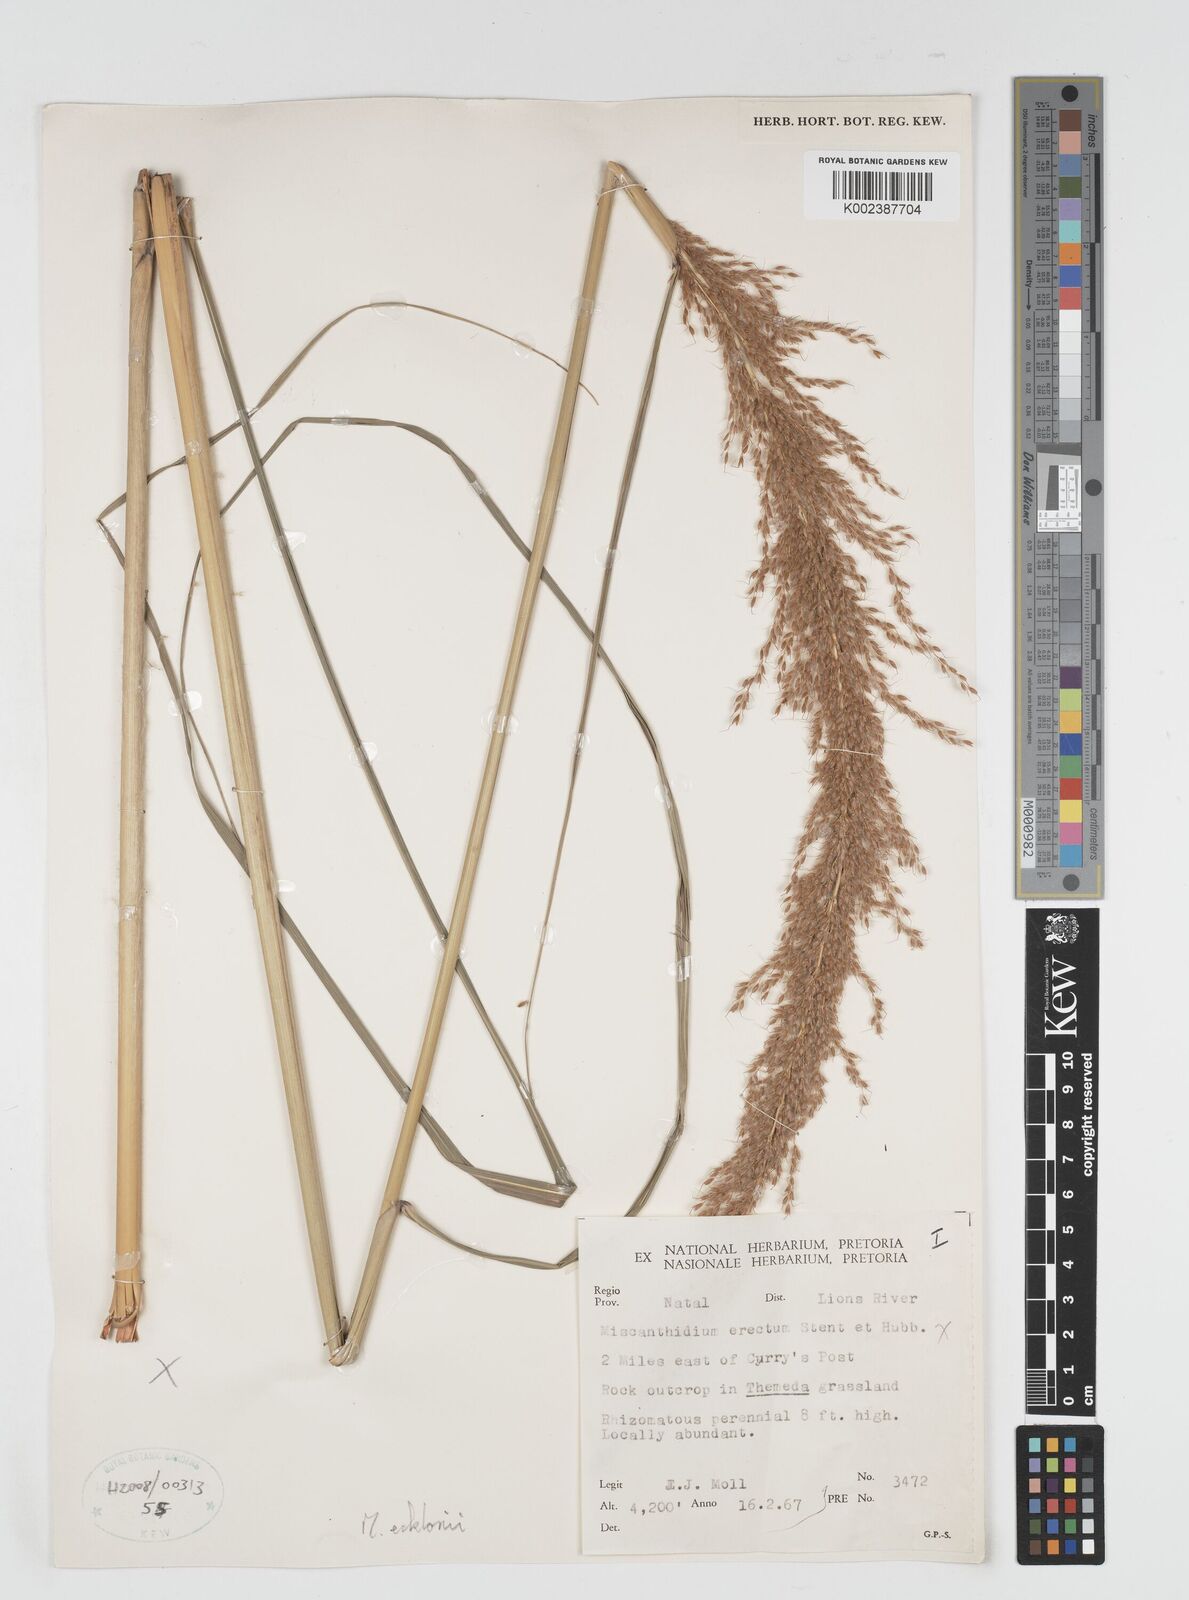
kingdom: Plantae
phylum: Tracheophyta
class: Liliopsida
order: Poales
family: Poaceae
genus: Miscanthus
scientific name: Miscanthus ecklonii
